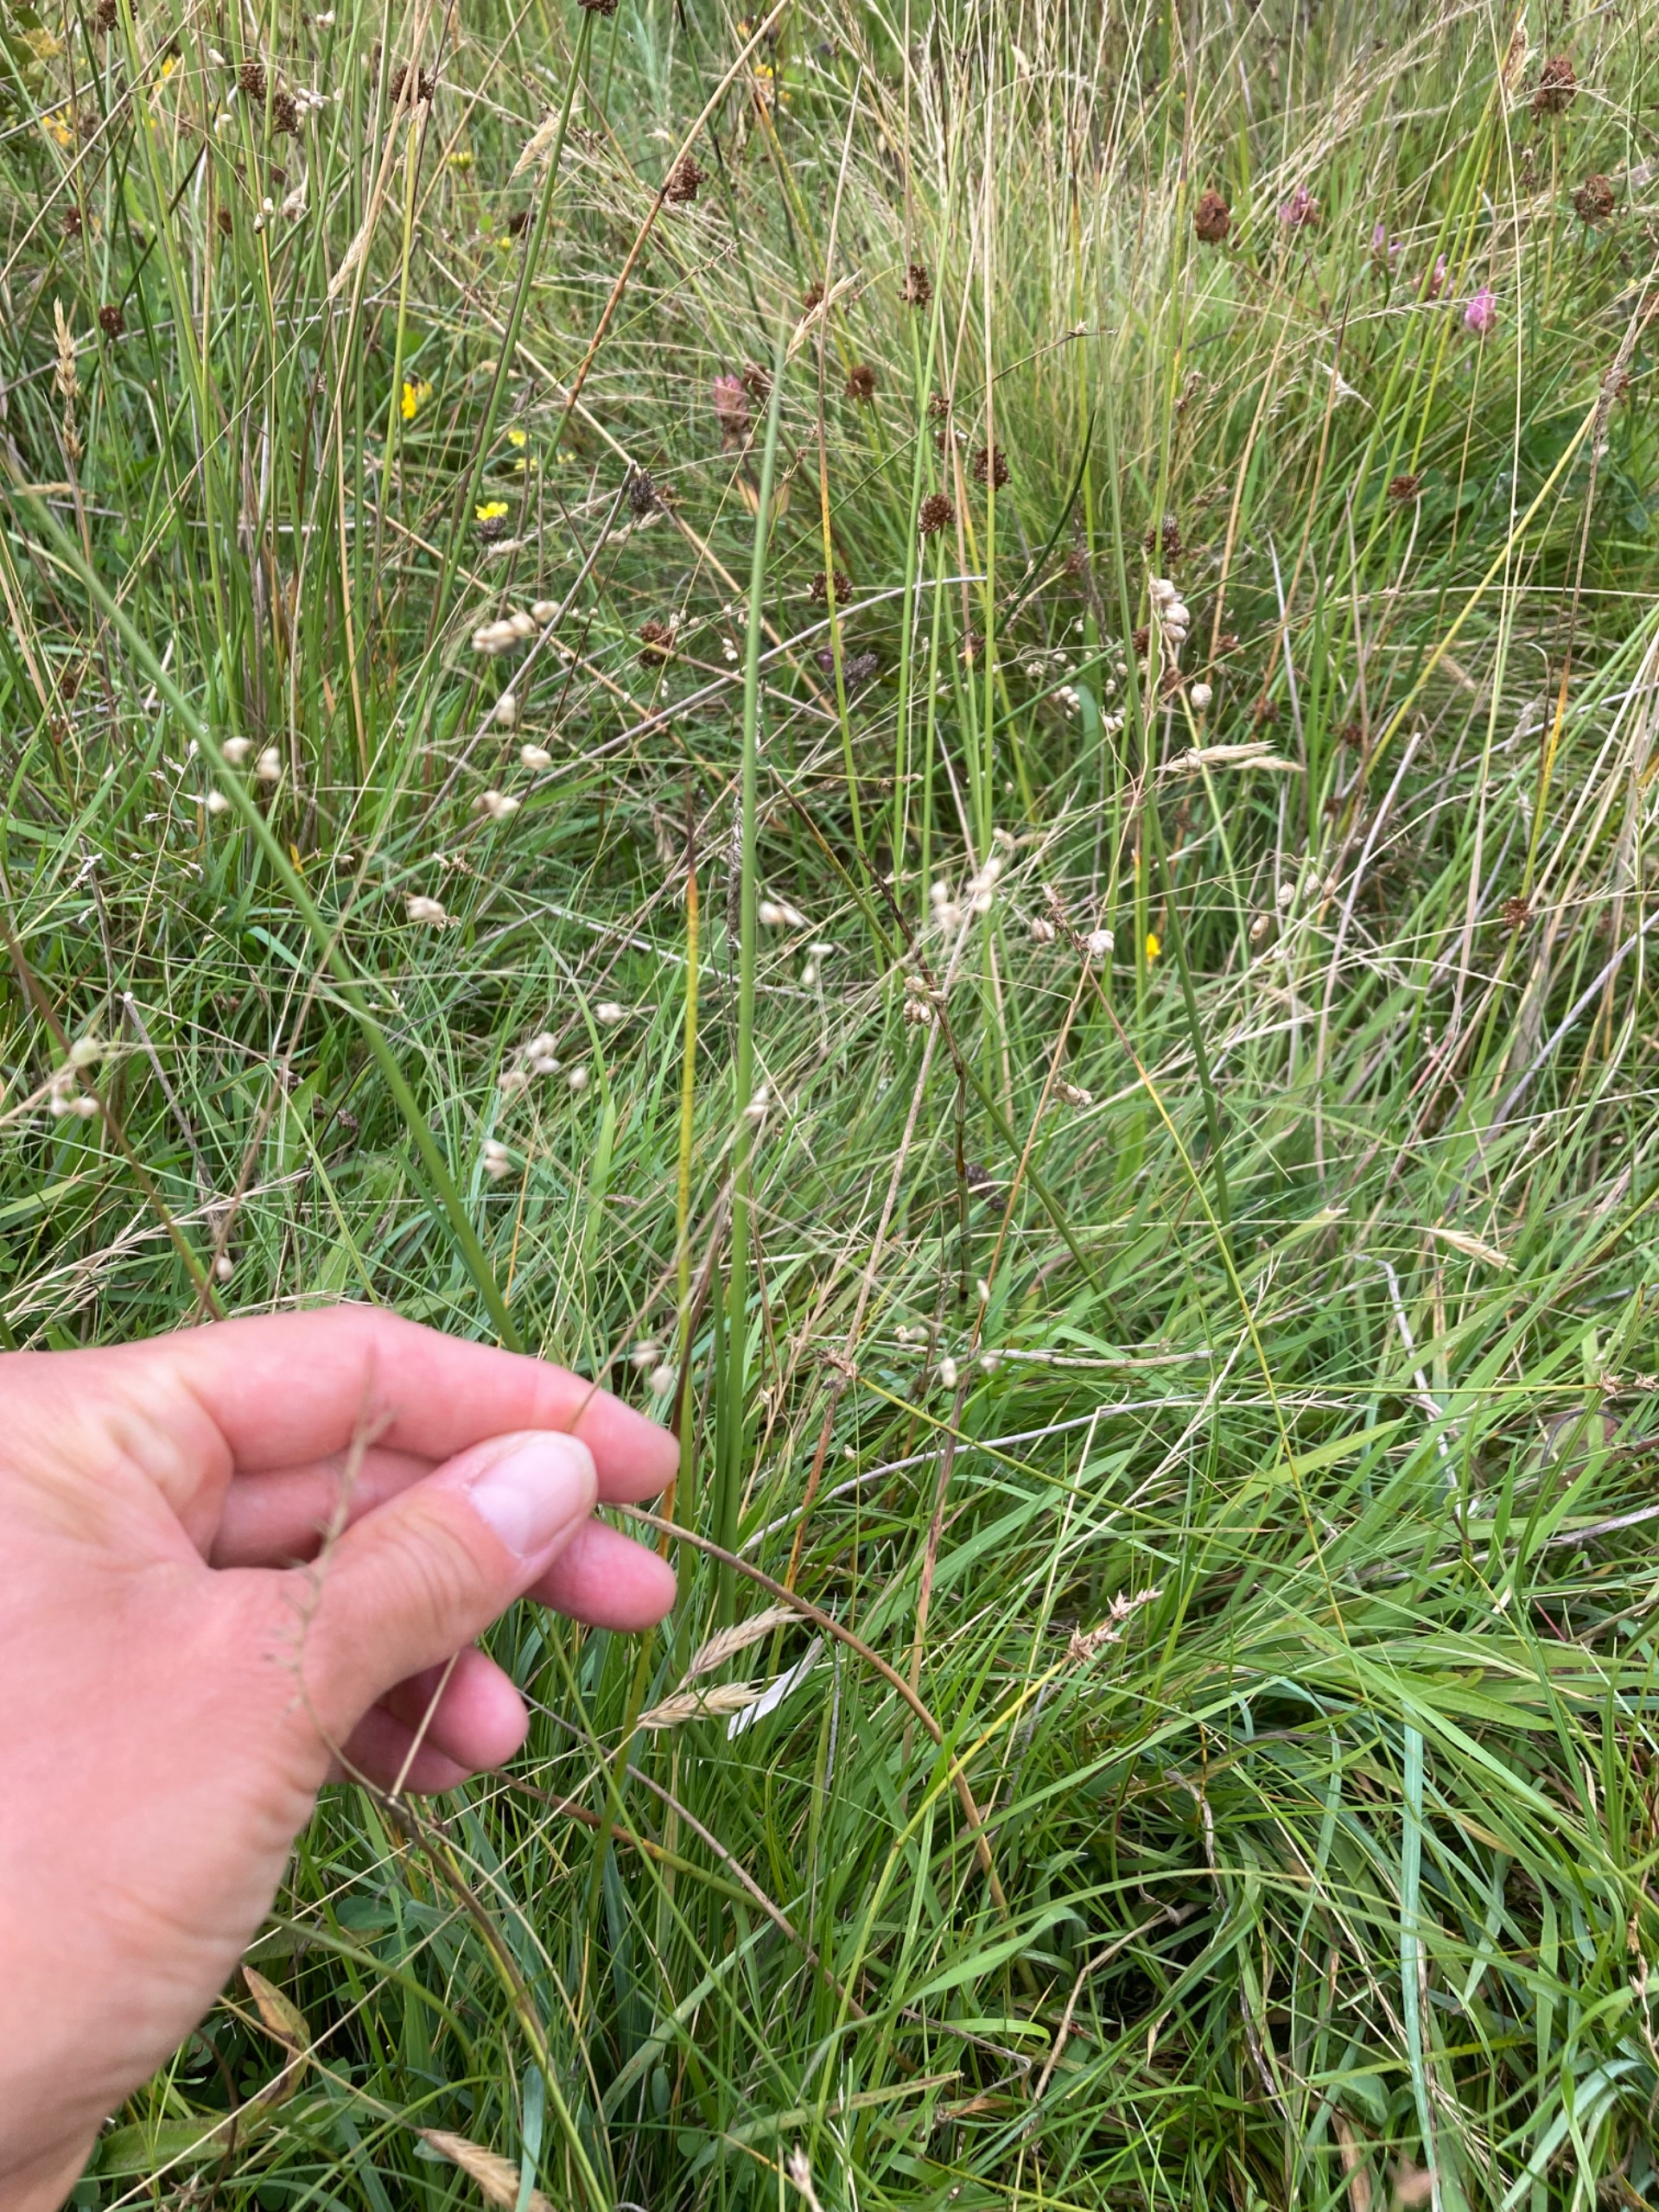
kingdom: Plantae
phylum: Tracheophyta
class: Liliopsida
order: Poales
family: Poaceae
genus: Briza
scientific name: Briza media
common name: Hjertegræs
